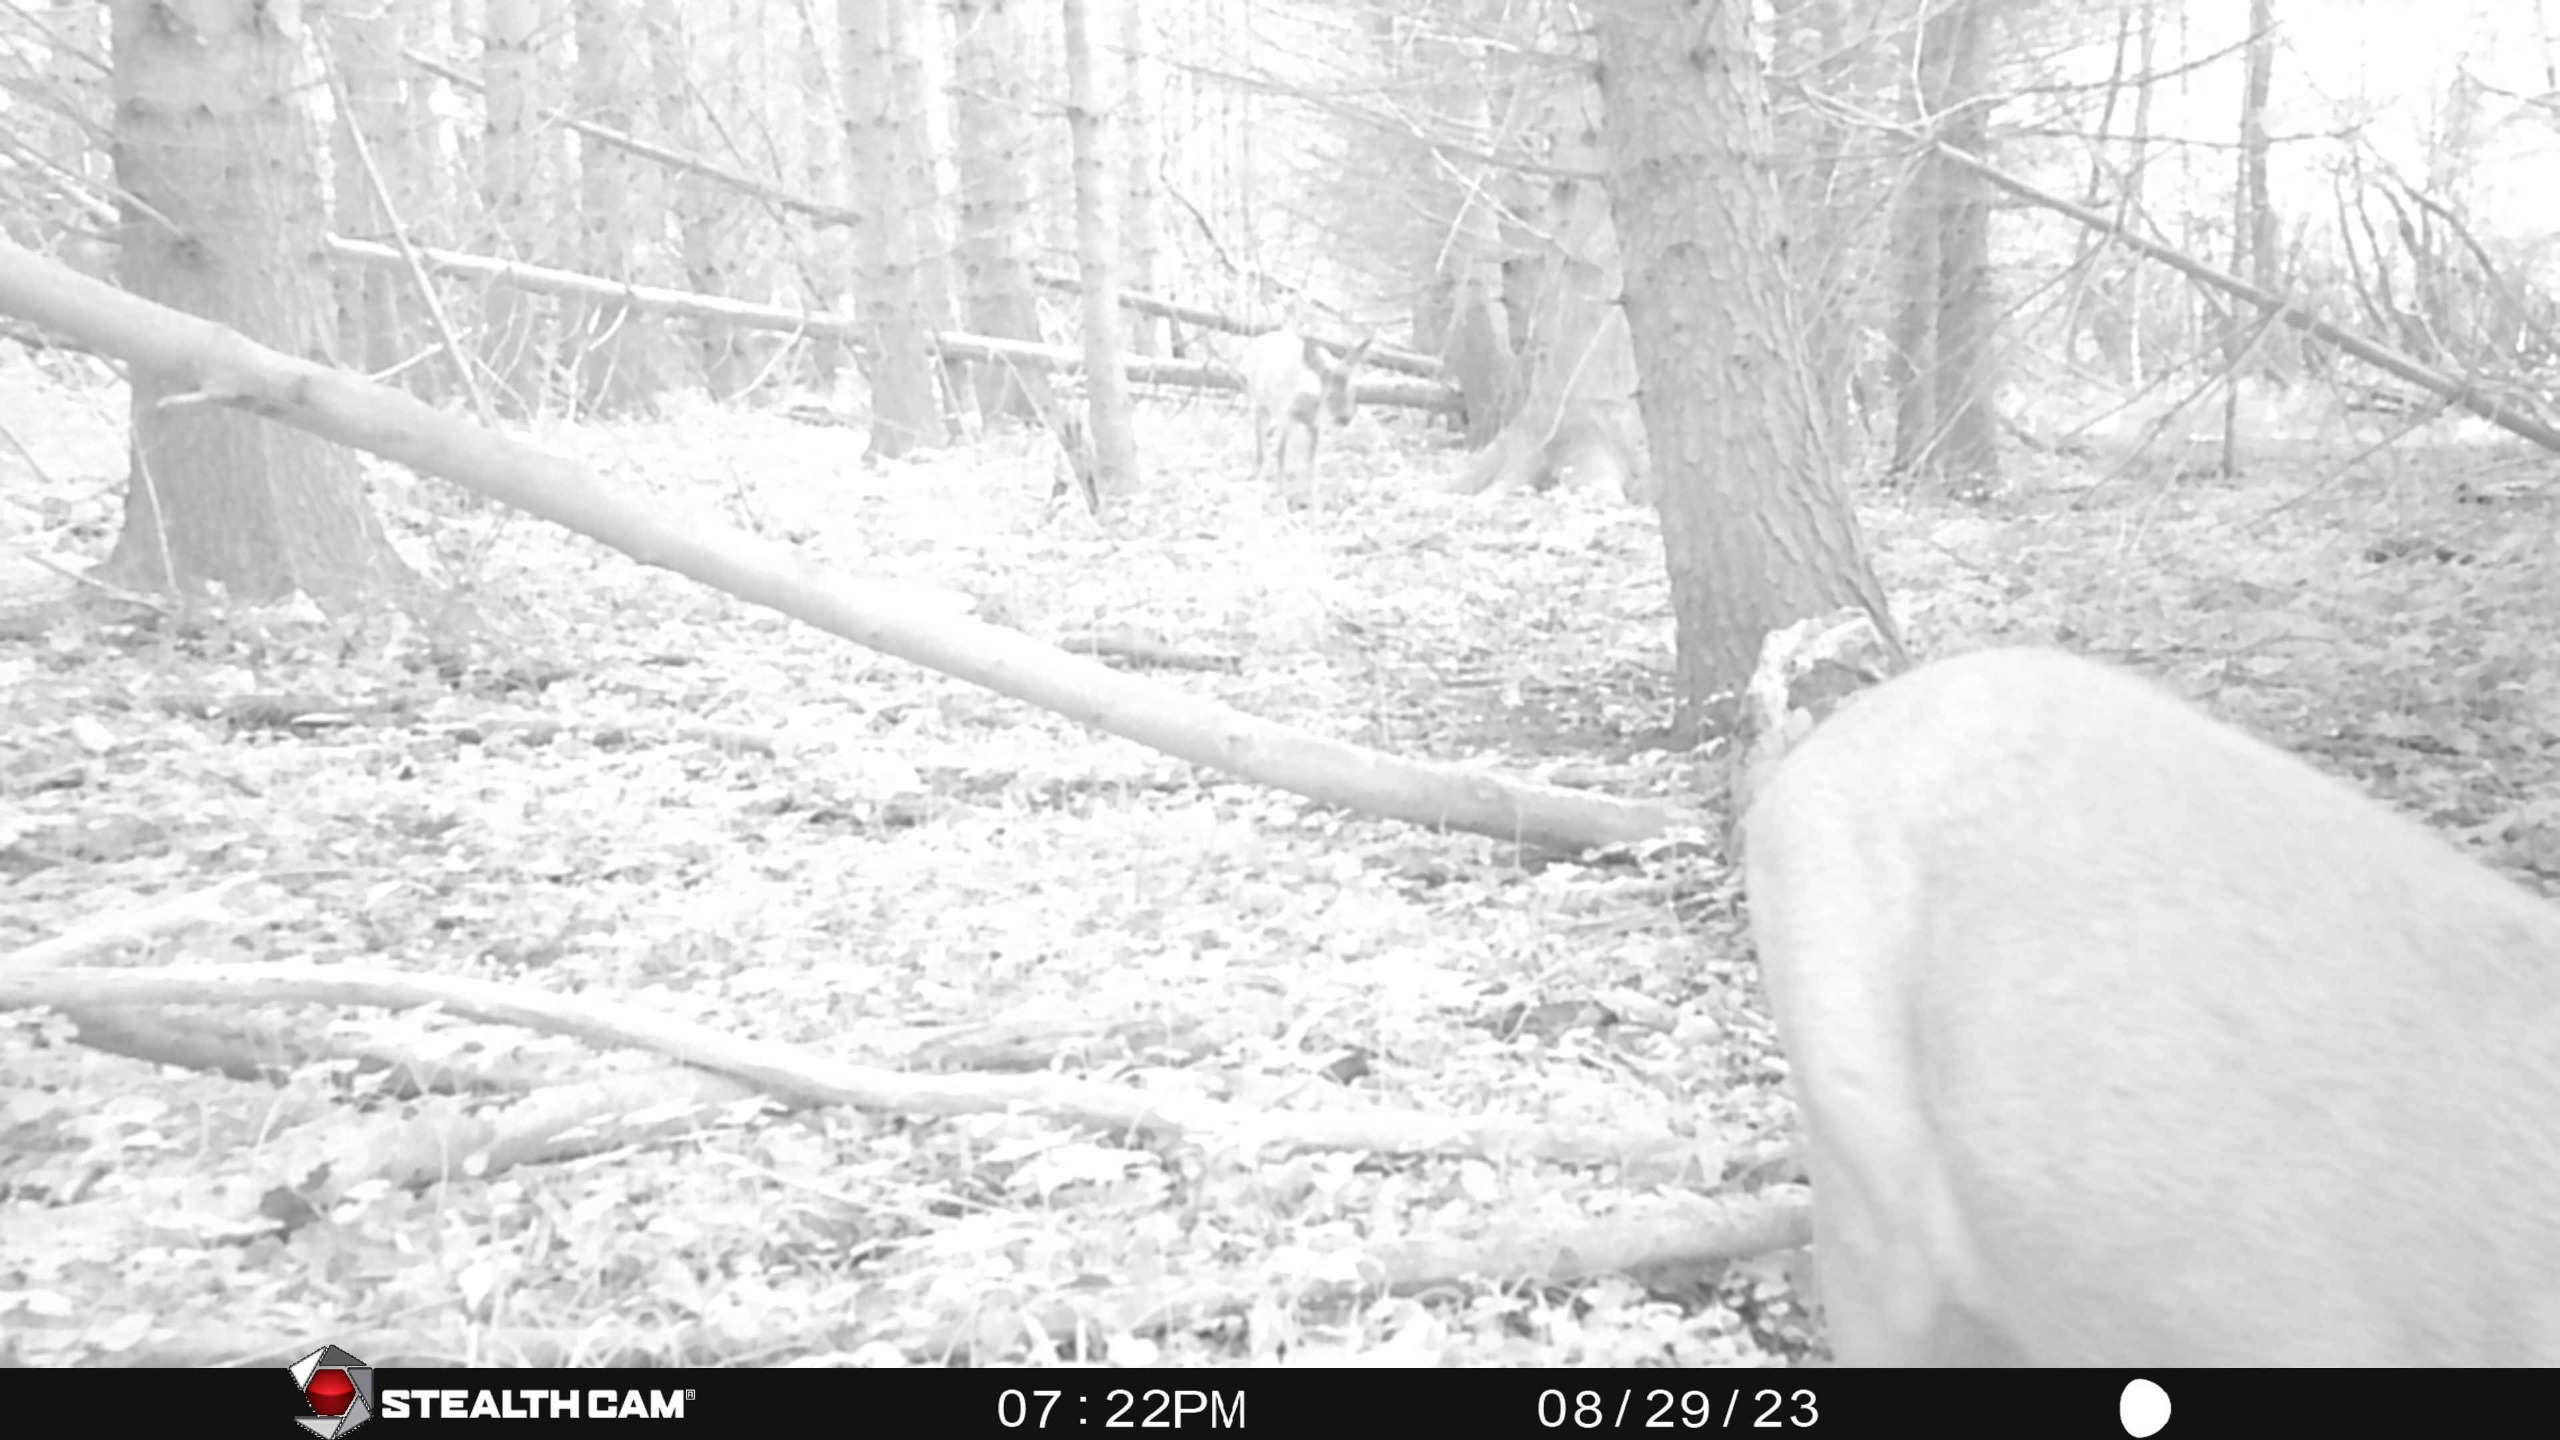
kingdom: Animalia
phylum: Chordata
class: Mammalia
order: Artiodactyla
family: Cervidae
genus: Capreolus
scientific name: Capreolus capreolus
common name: Rådyr
